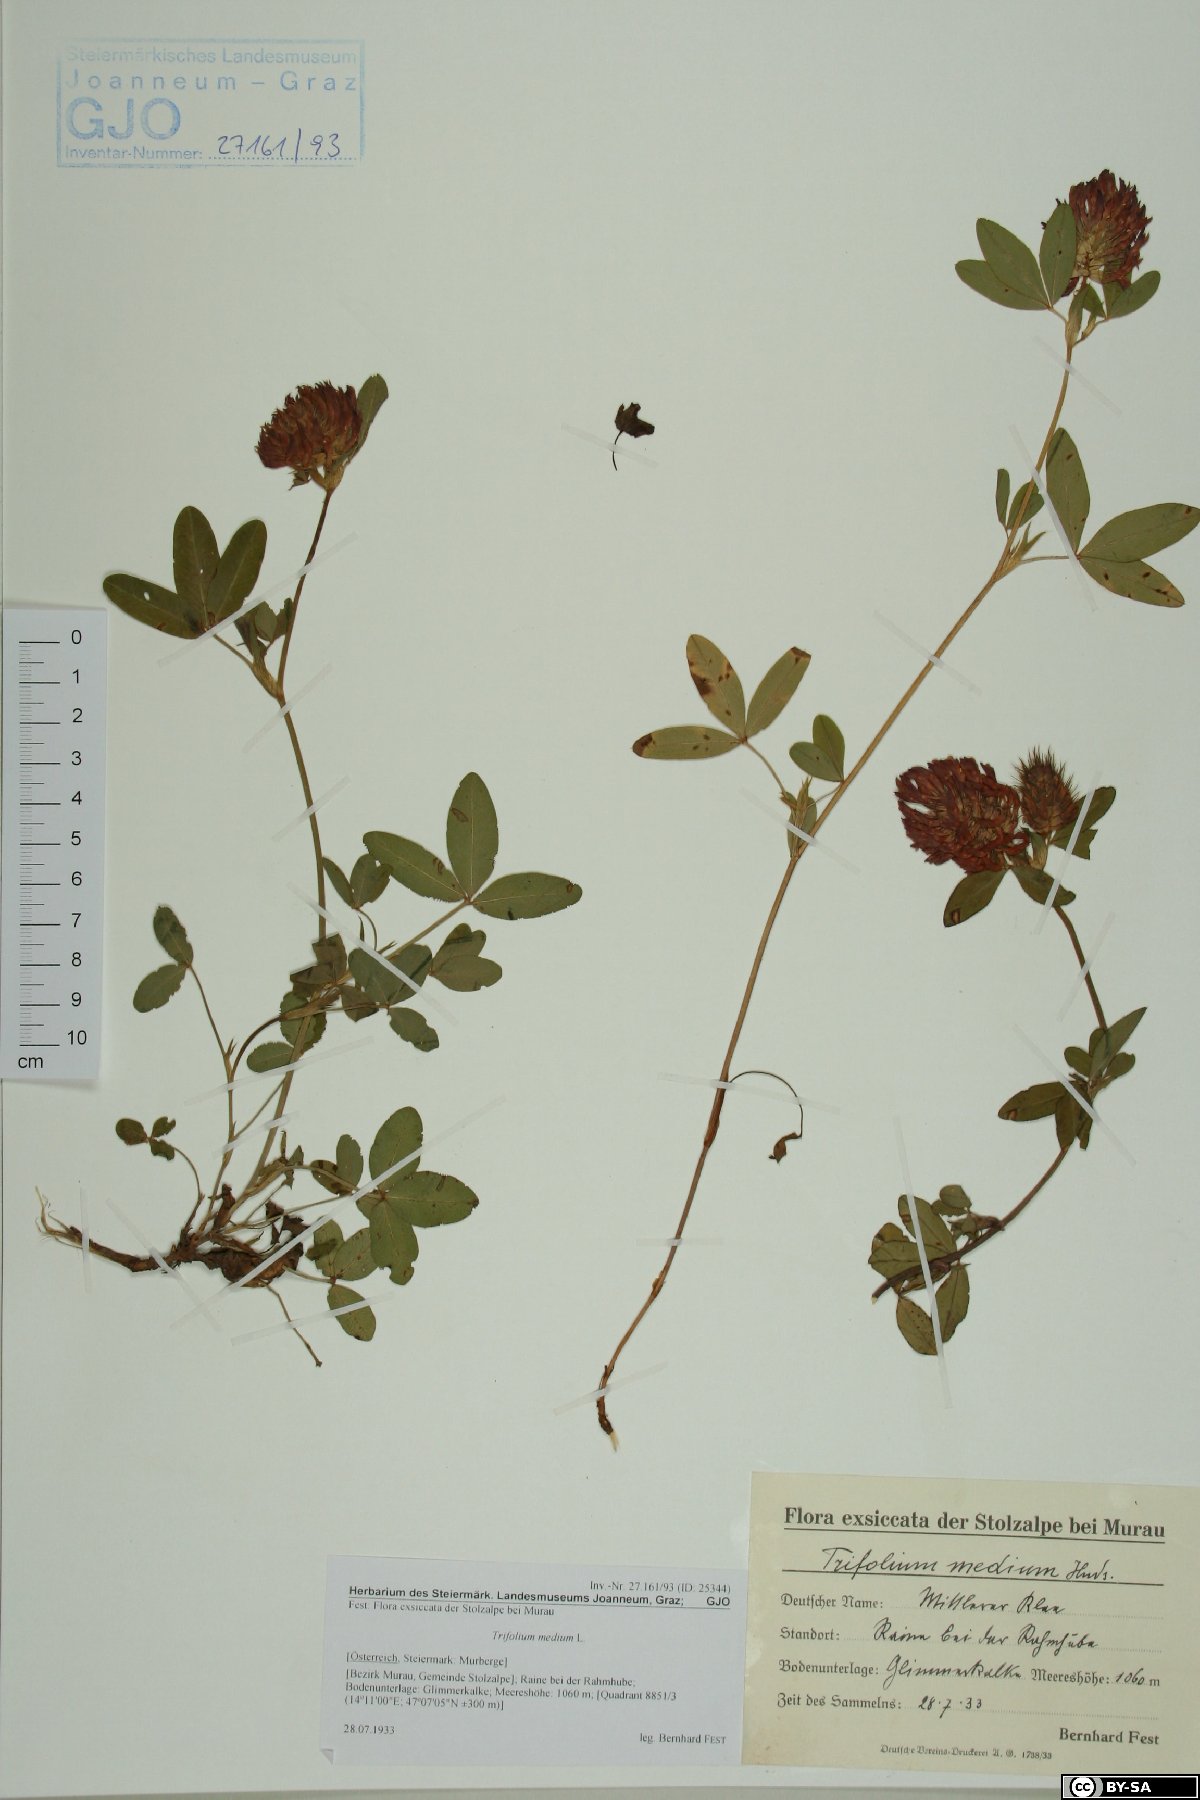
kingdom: Plantae
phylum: Tracheophyta
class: Magnoliopsida
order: Fabales
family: Fabaceae
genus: Trifolium
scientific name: Trifolium medium
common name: Zigzag clover
